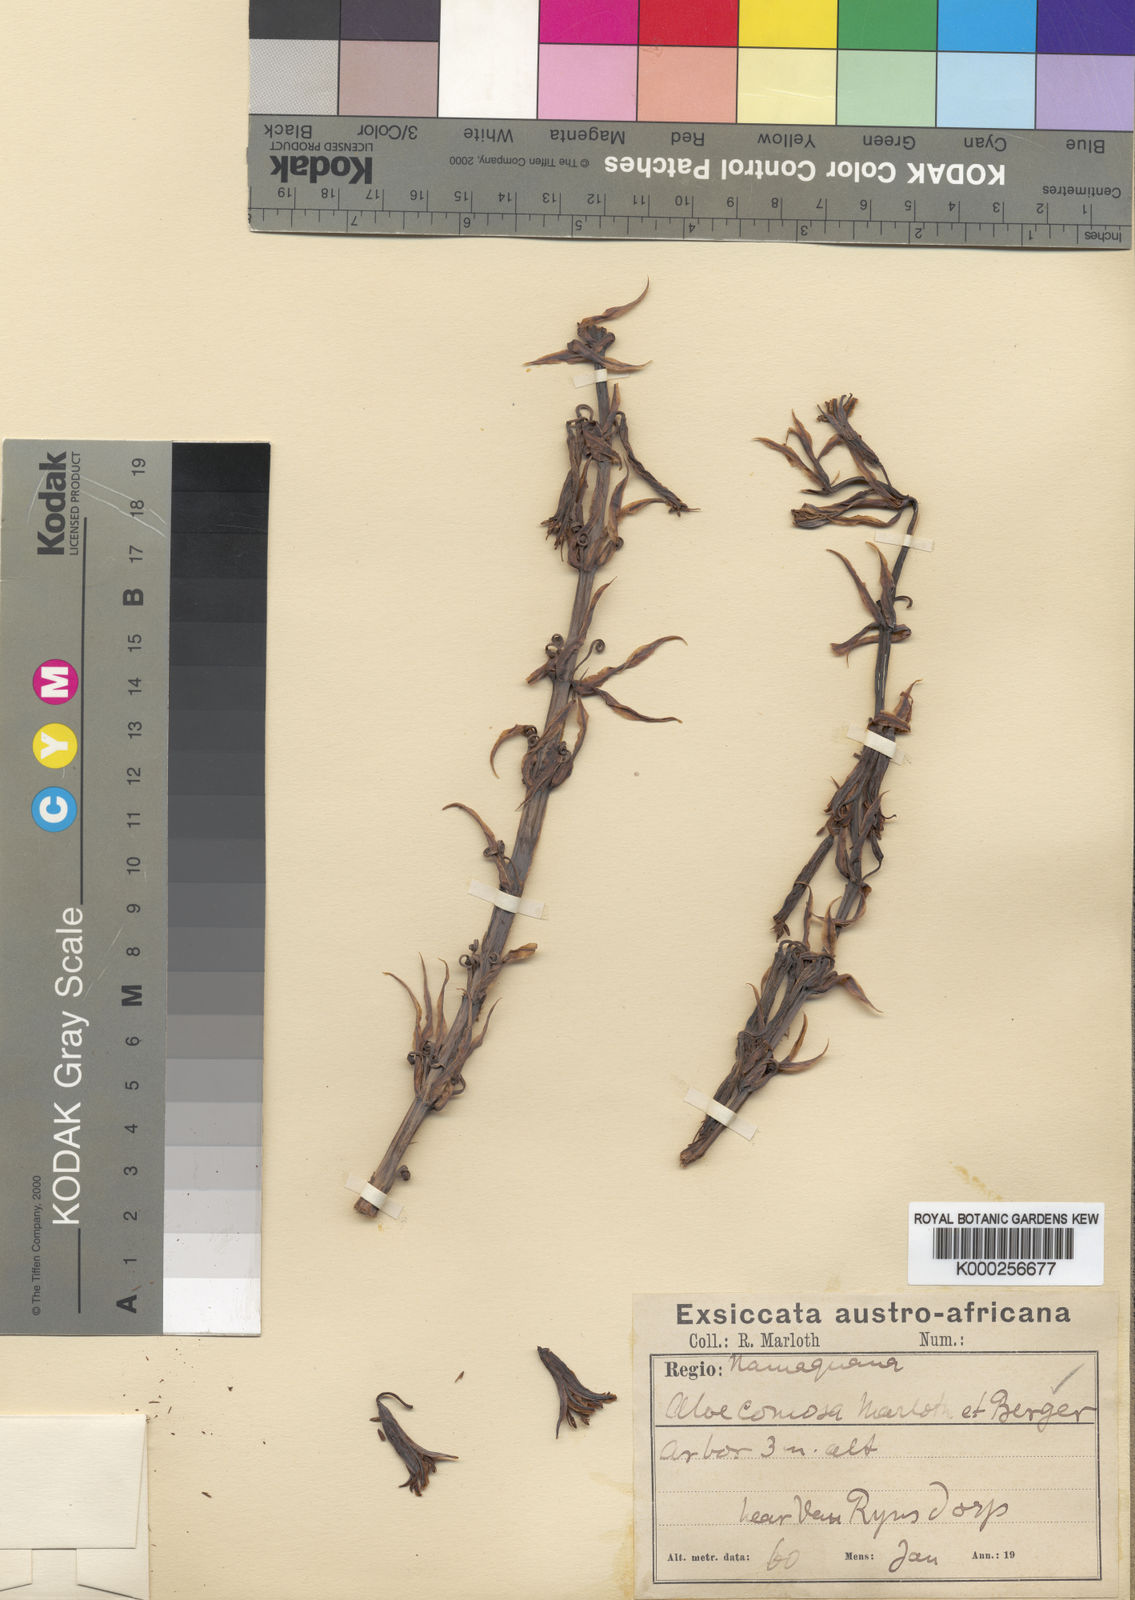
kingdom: Plantae
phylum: Tracheophyta
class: Liliopsida
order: Asparagales
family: Asphodelaceae
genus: Aloe
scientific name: Aloe comosa
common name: Clanwilliam aloe
